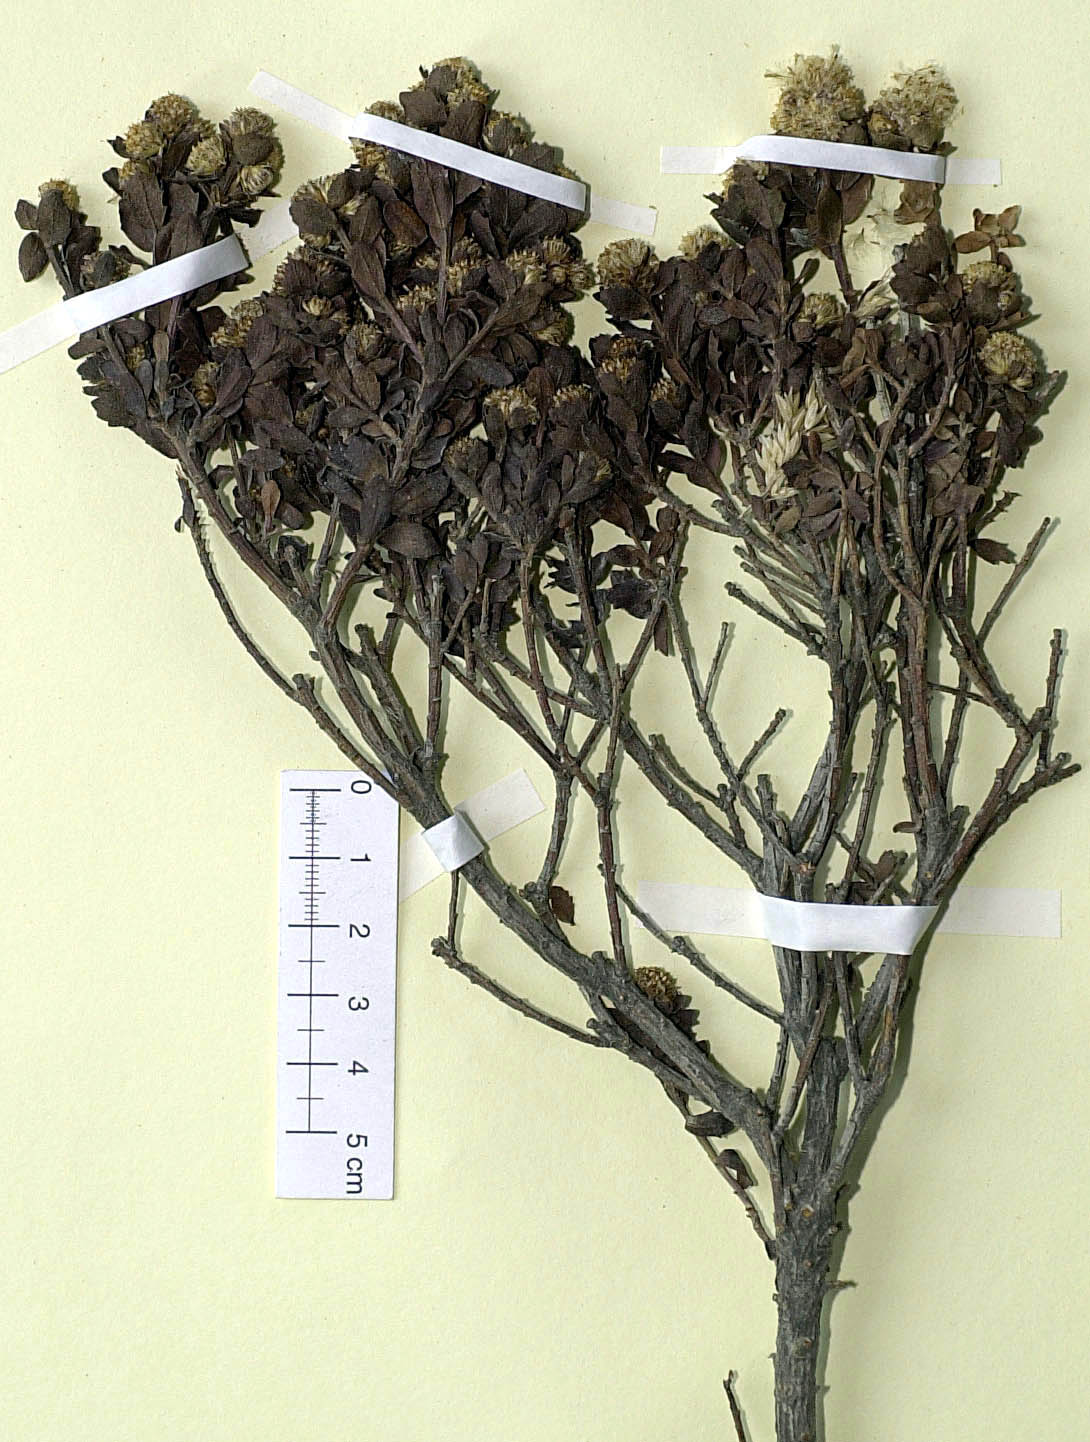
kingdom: Plantae
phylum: Tracheophyta
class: Magnoliopsida
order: Asterales
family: Asteraceae
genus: Baccharis
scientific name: Baccharis mylodontis
